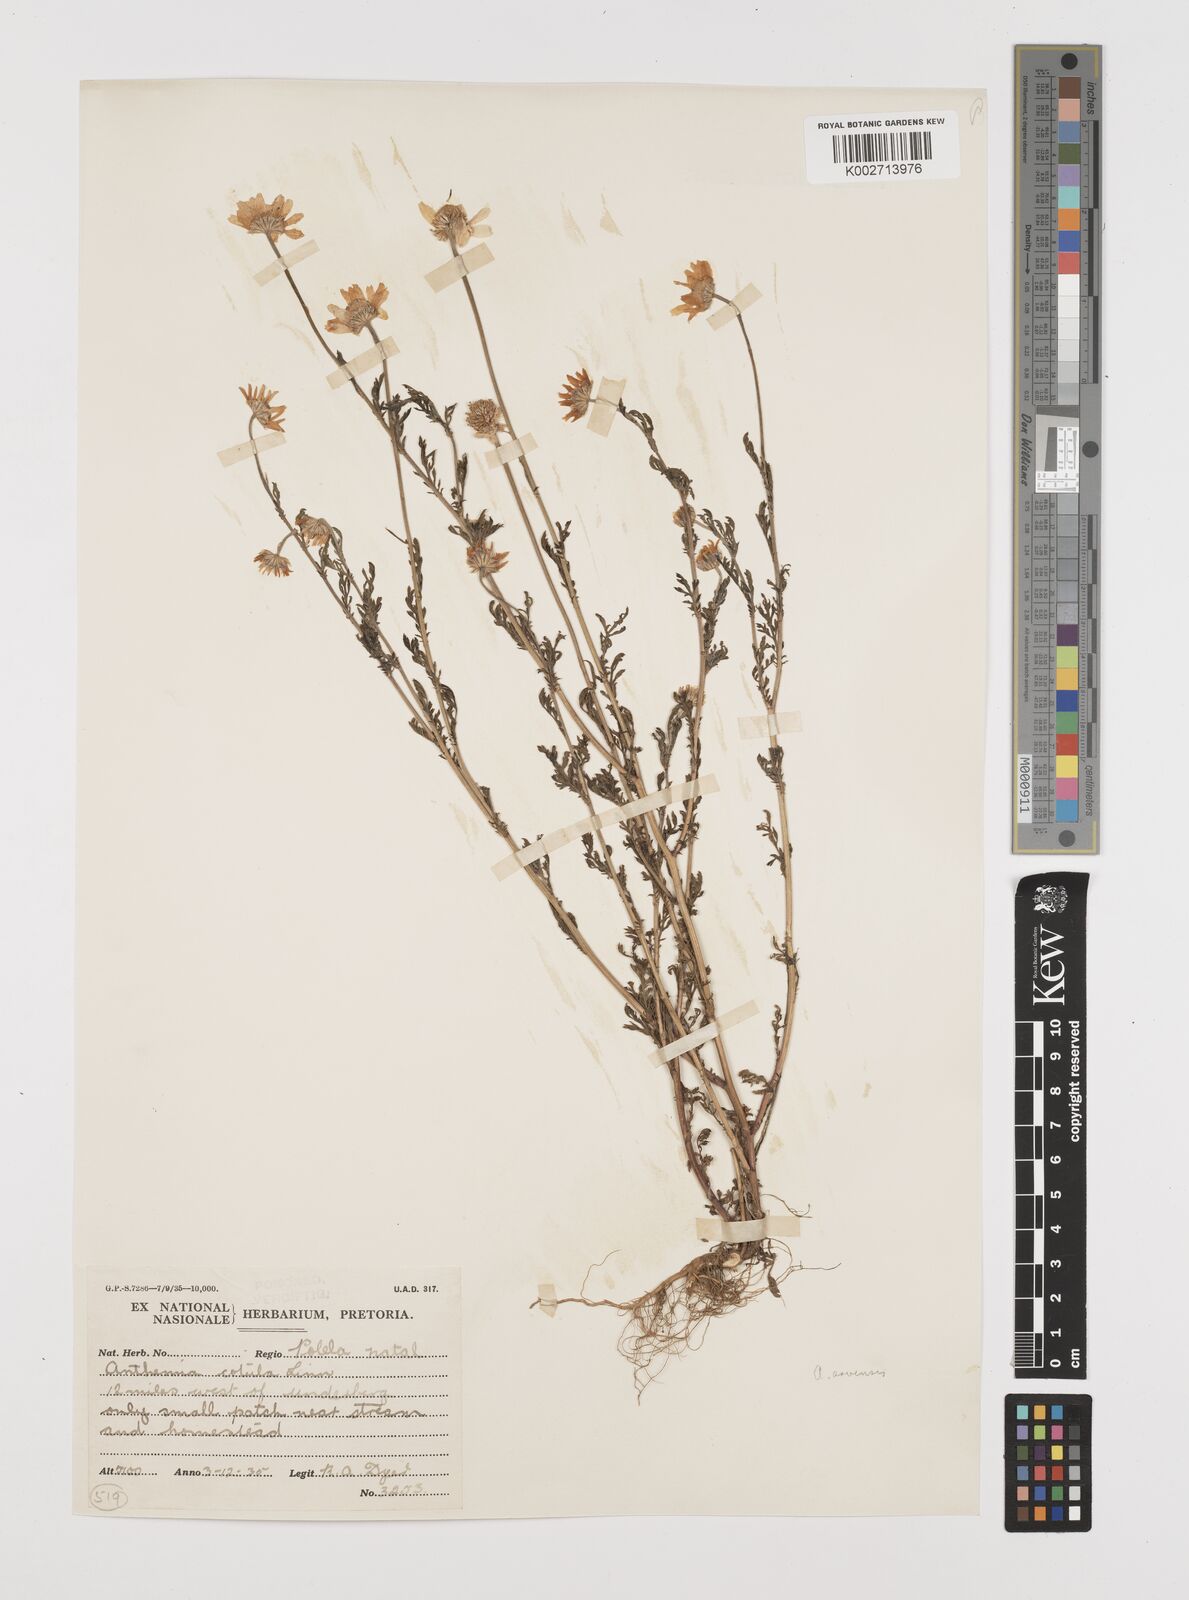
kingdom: Plantae
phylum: Tracheophyta
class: Magnoliopsida
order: Asterales
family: Asteraceae
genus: Anthemis
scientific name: Anthemis arvensis
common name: Corn chamomile
